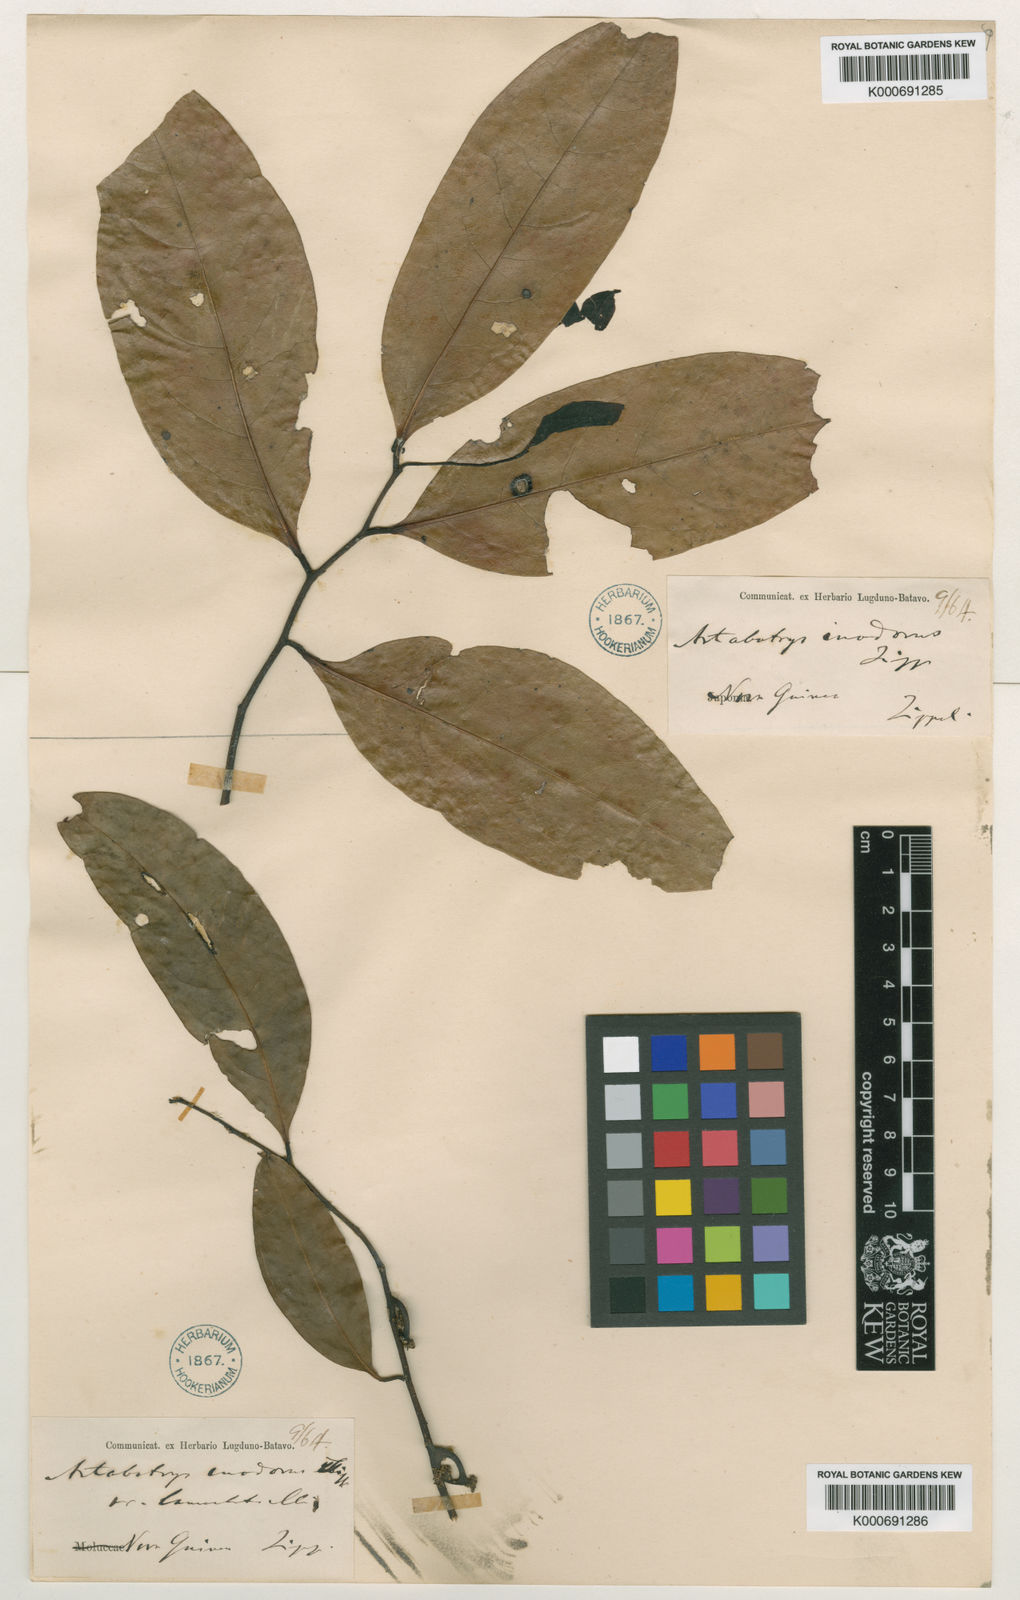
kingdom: Plantae
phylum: Tracheophyta
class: Magnoliopsida
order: Magnoliales
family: Annonaceae
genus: Artabotrys
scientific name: Artabotrys inodorus
